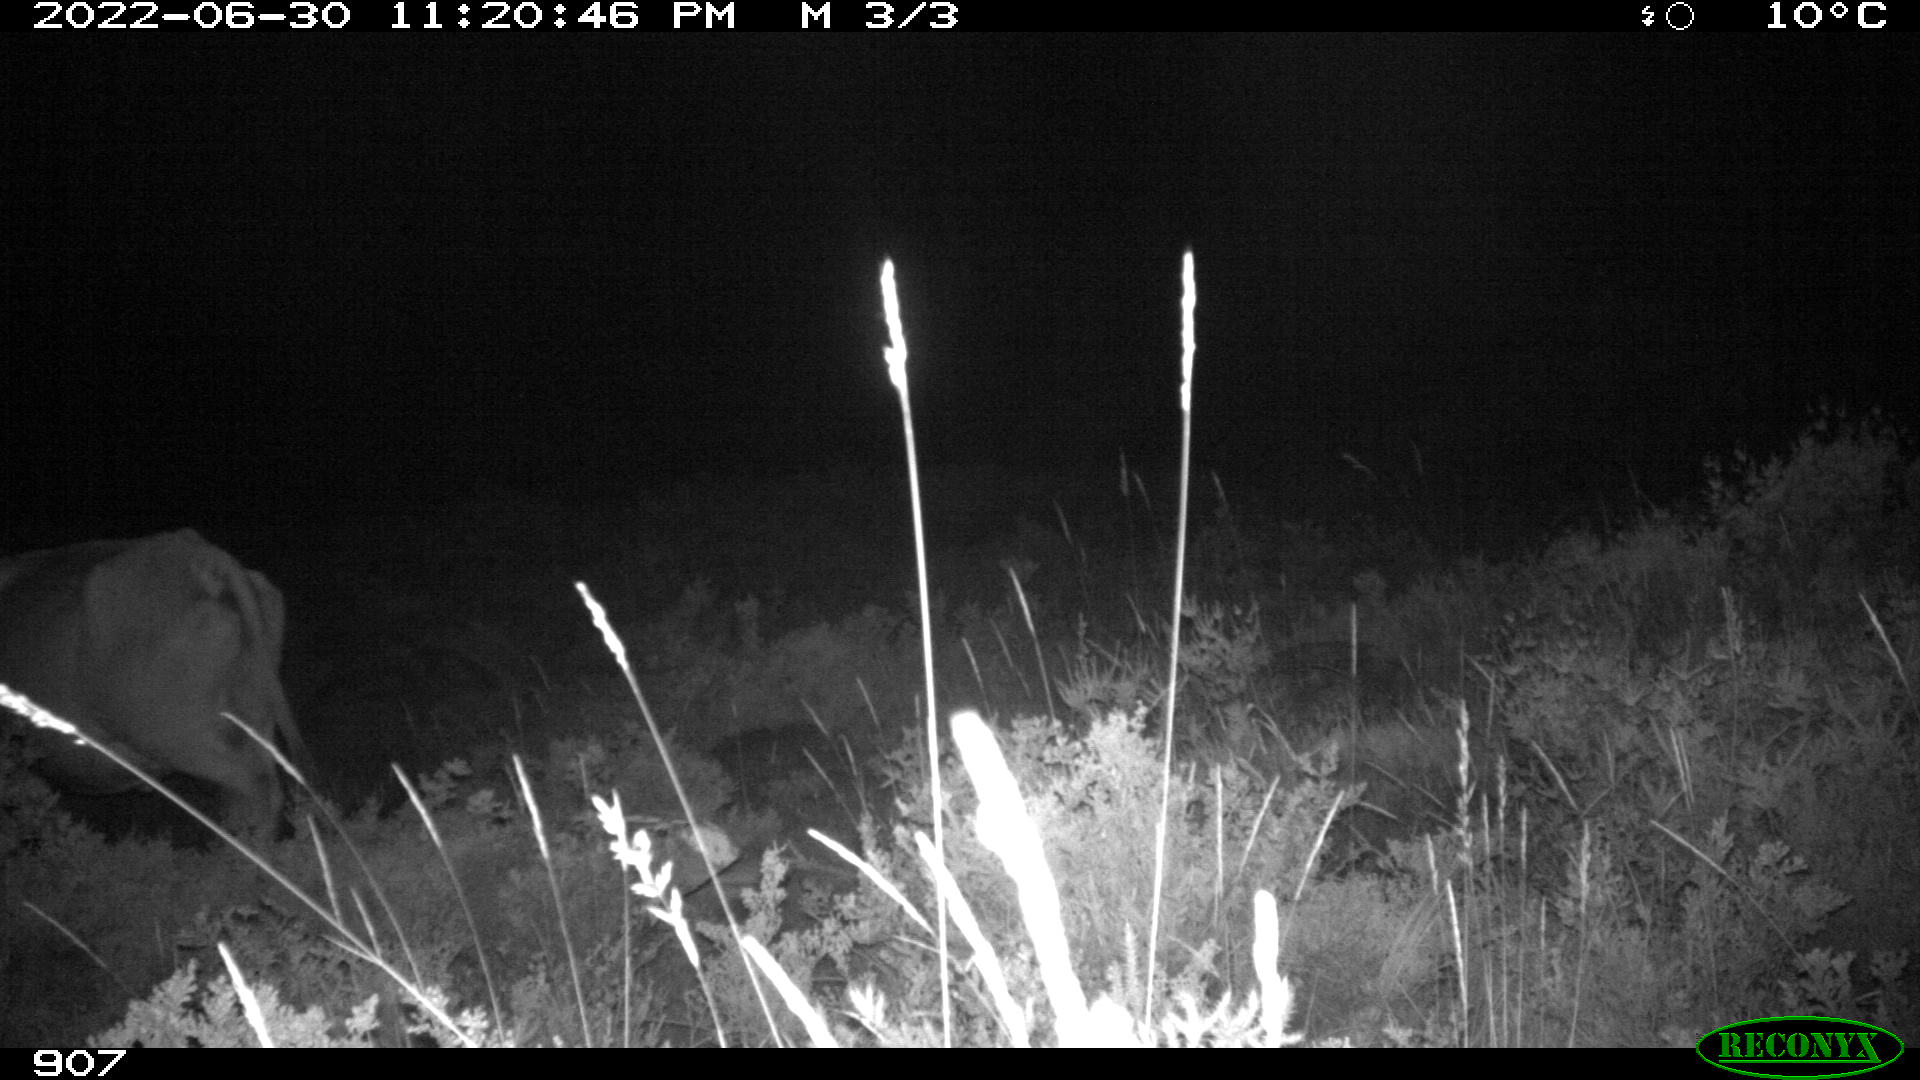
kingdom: Animalia
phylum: Chordata
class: Mammalia
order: Artiodactyla
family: Bovidae
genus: Bos
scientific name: Bos taurus
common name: Domesticated cattle
